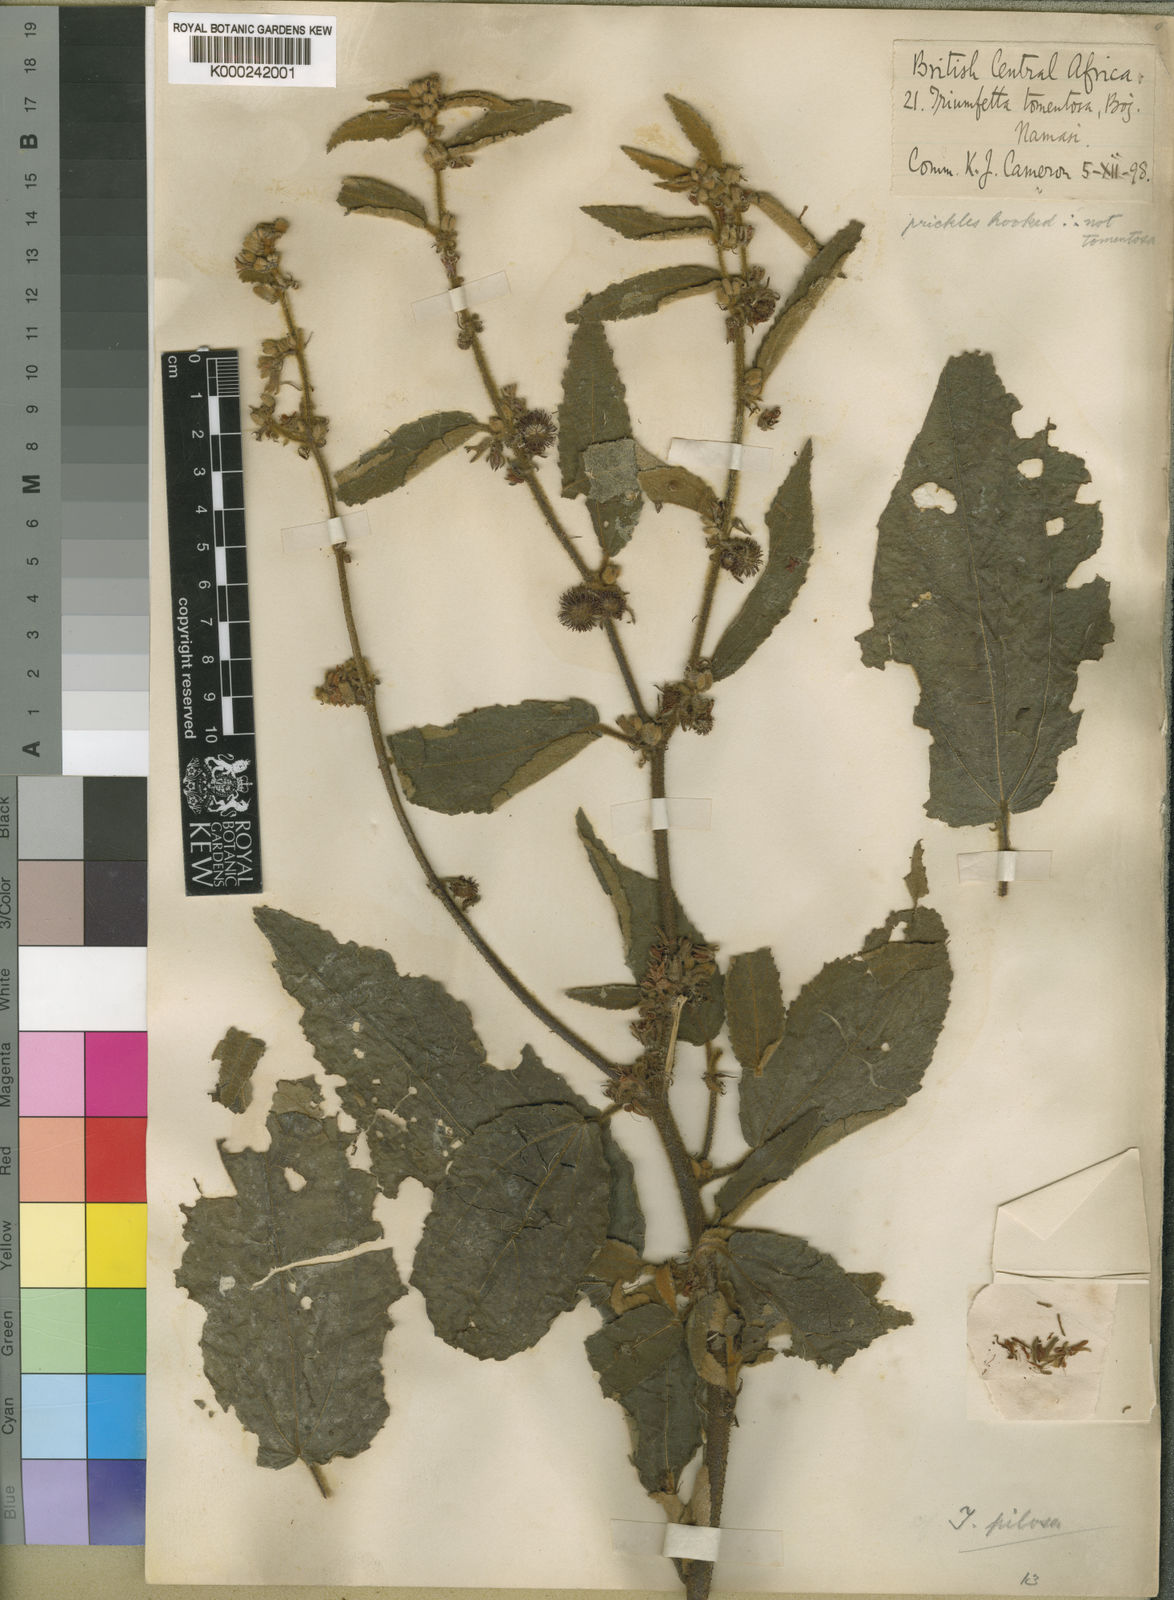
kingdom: Plantae
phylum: Tracheophyta
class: Magnoliopsida
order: Malvales
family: Malvaceae
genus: Triumfetta
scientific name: Triumfetta pilosa
